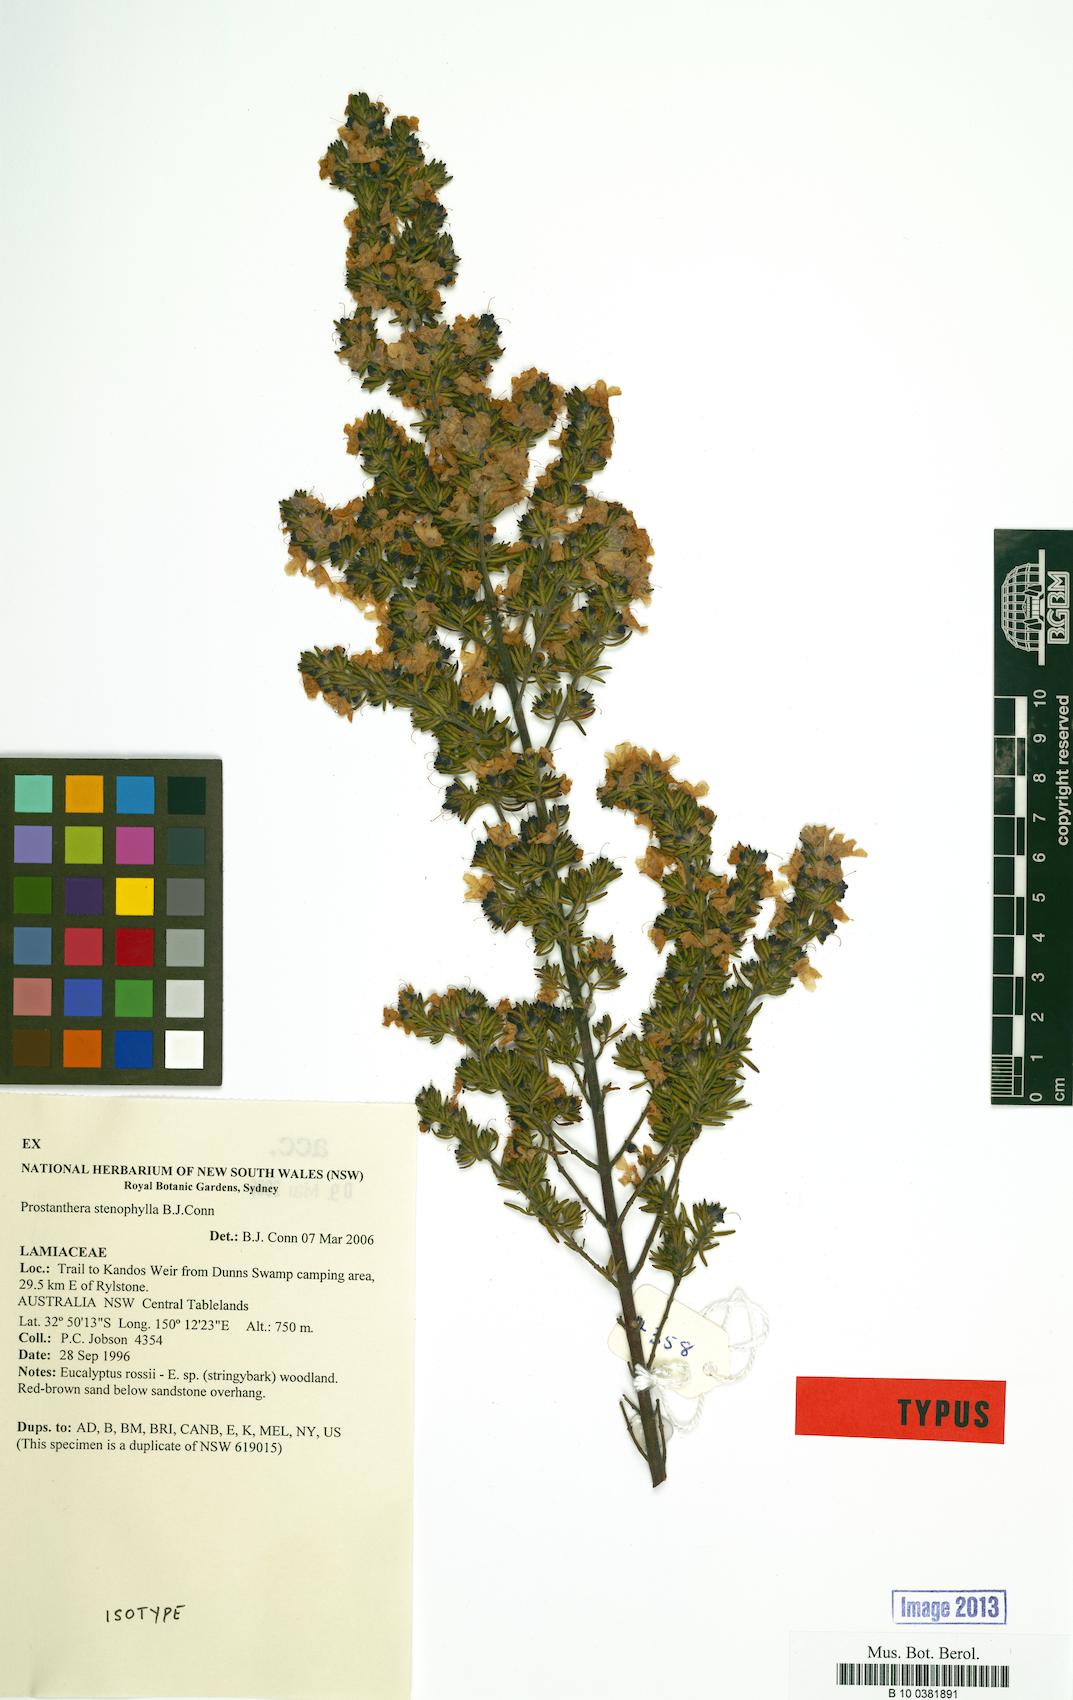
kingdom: Plantae
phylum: Tracheophyta
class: Magnoliopsida
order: Lamiales
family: Lamiaceae
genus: Prostanthera
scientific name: Prostanthera stenophylla
